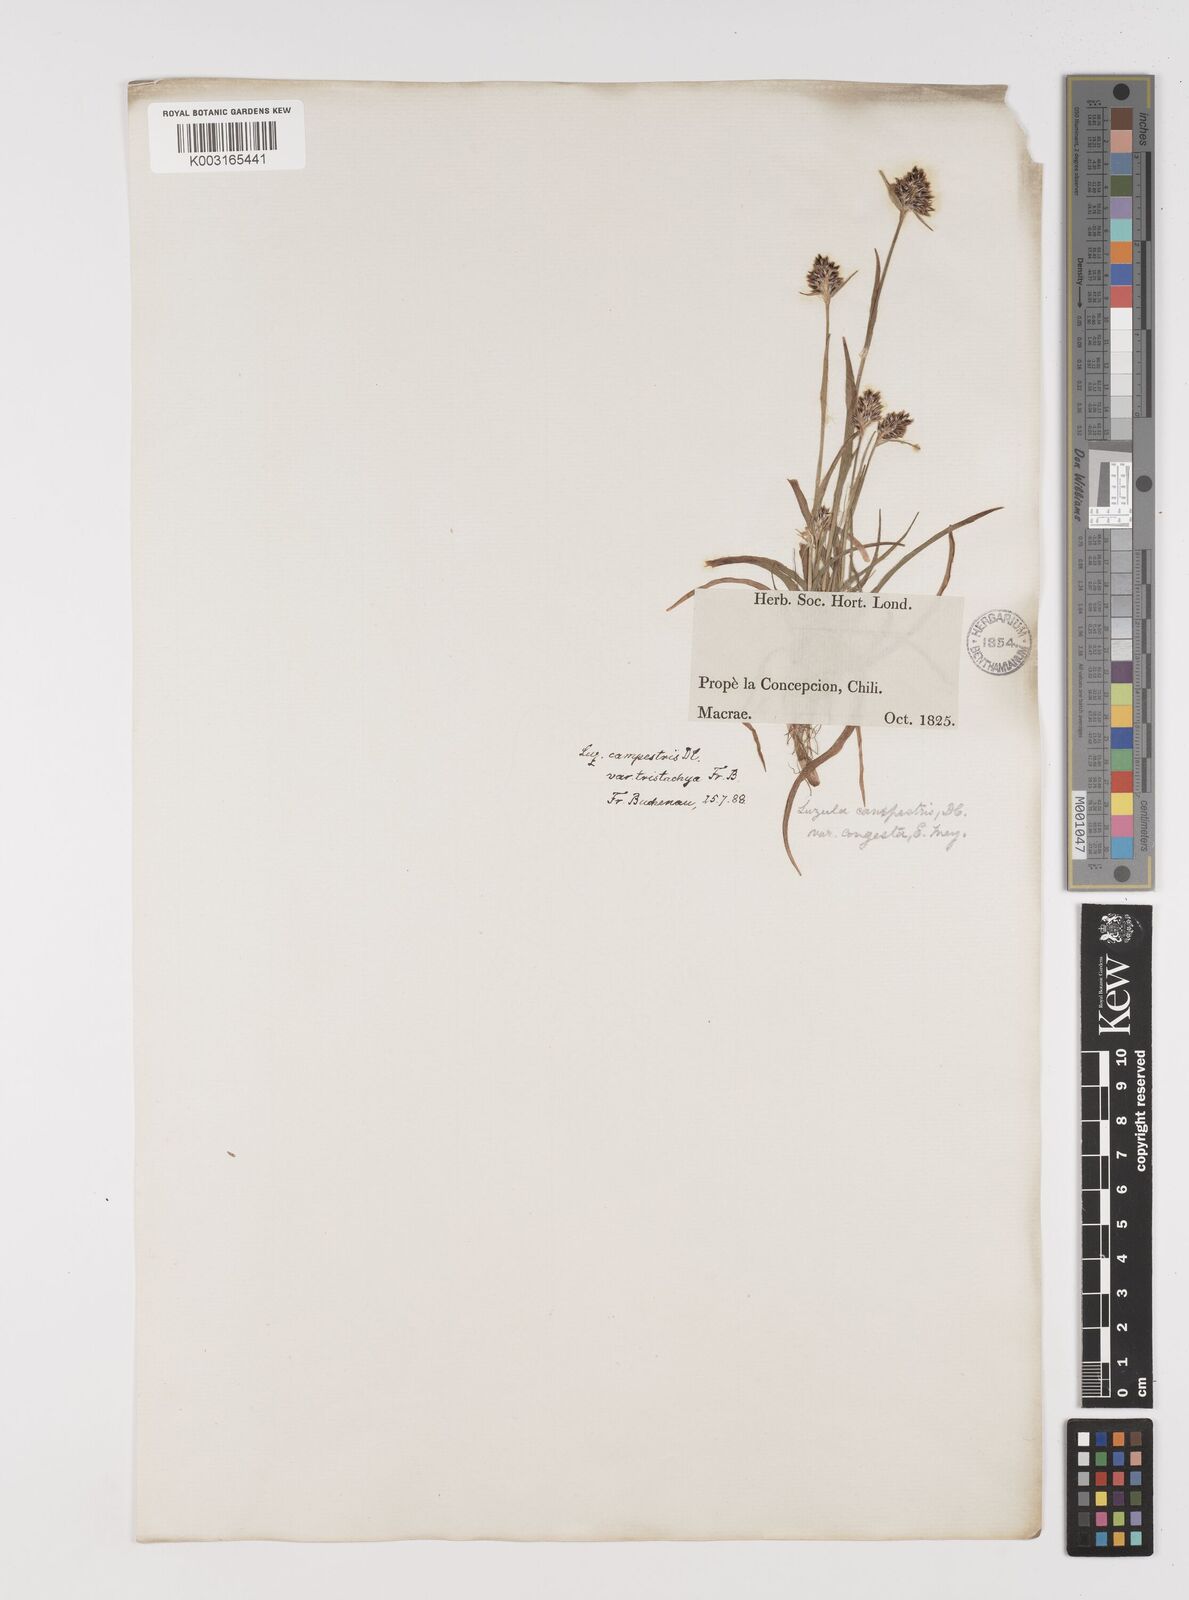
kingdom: Plantae
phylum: Tracheophyta
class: Liliopsida
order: Poales
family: Juncaceae
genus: Luzula
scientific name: Luzula tristachya
